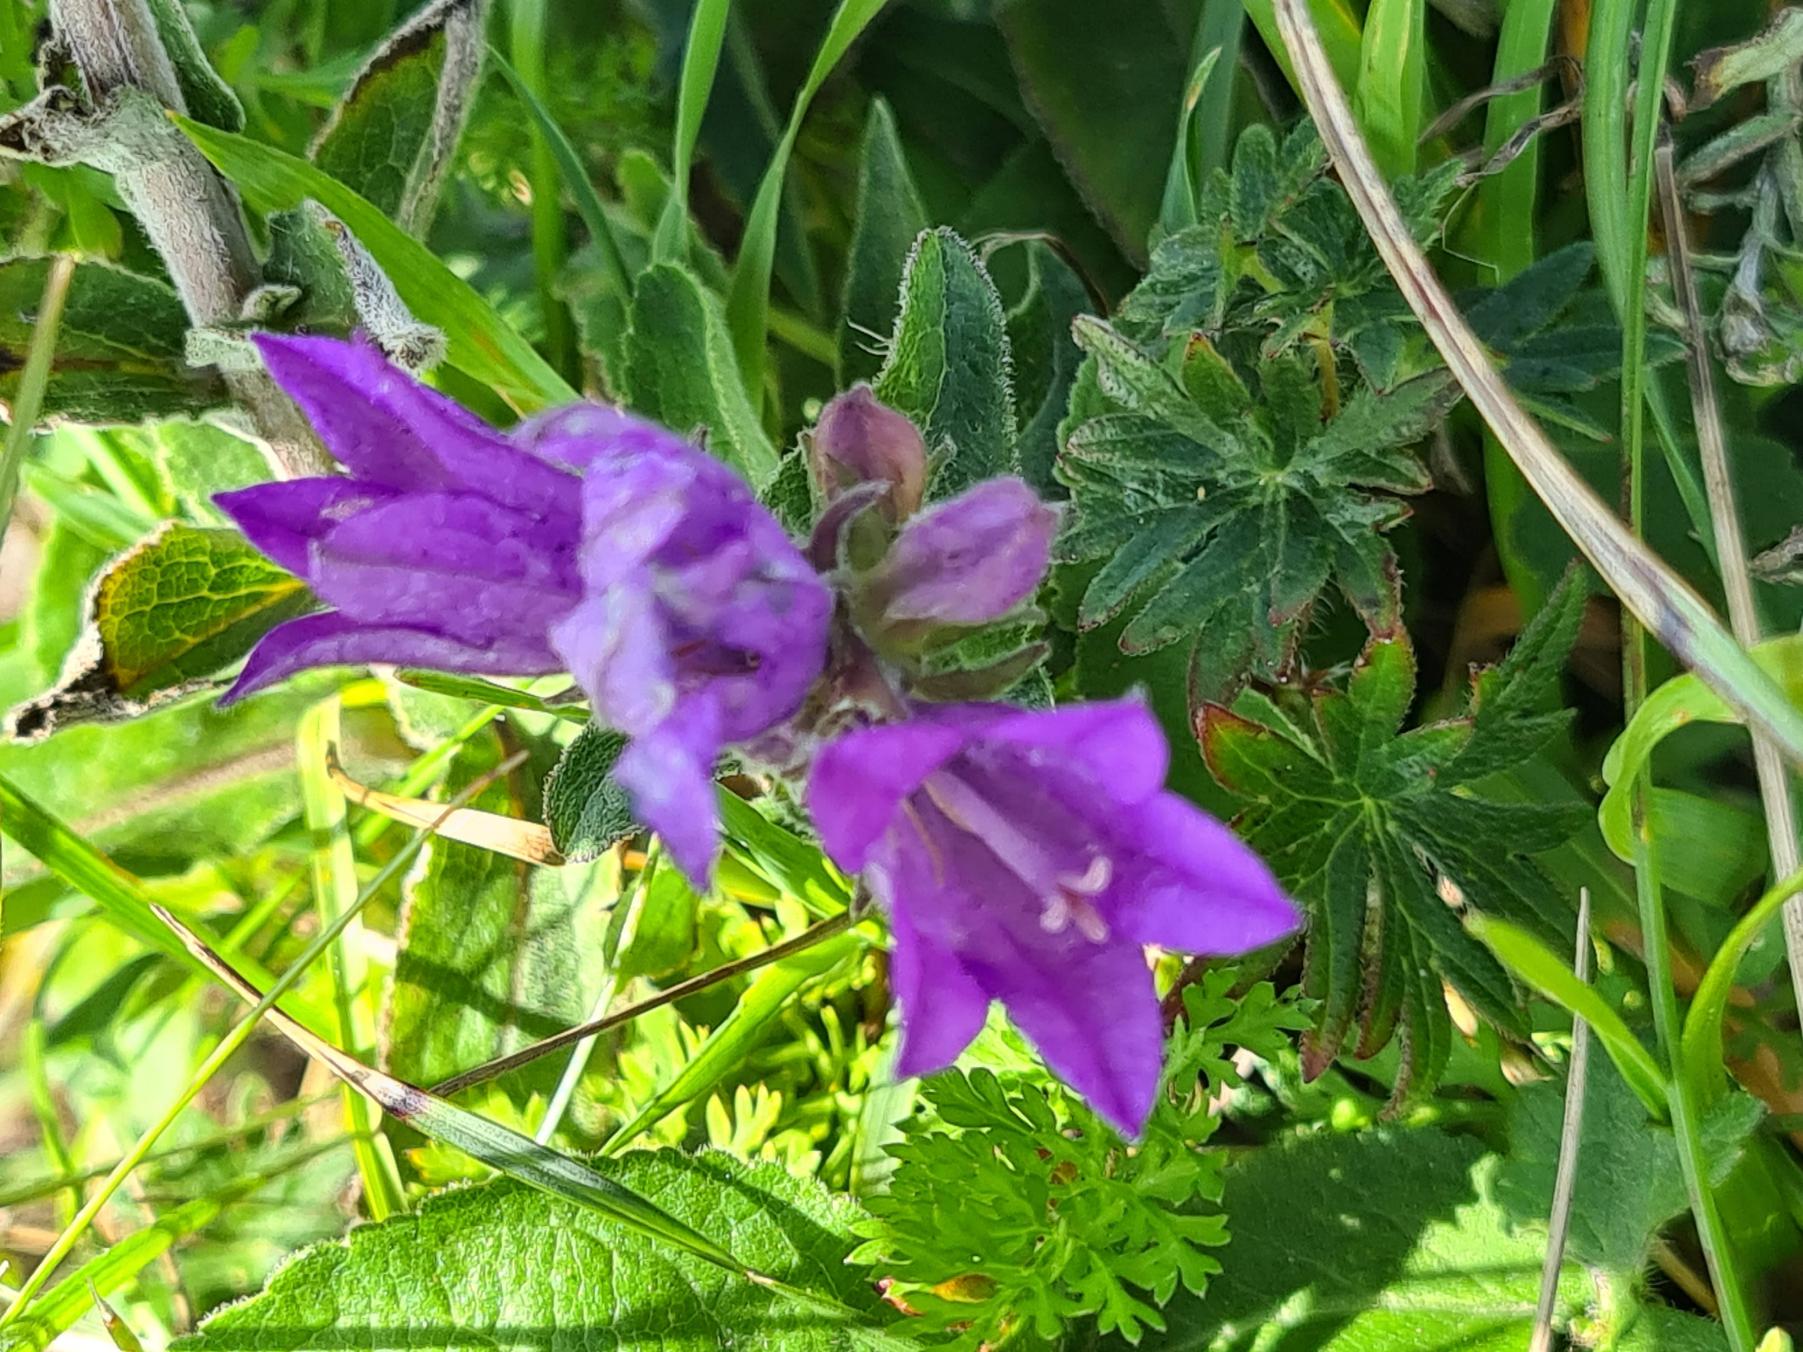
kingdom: Plantae
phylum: Tracheophyta
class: Magnoliopsida
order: Asterales
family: Campanulaceae
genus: Campanula
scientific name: Campanula glomerata
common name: Nøgleblomstret klokke
